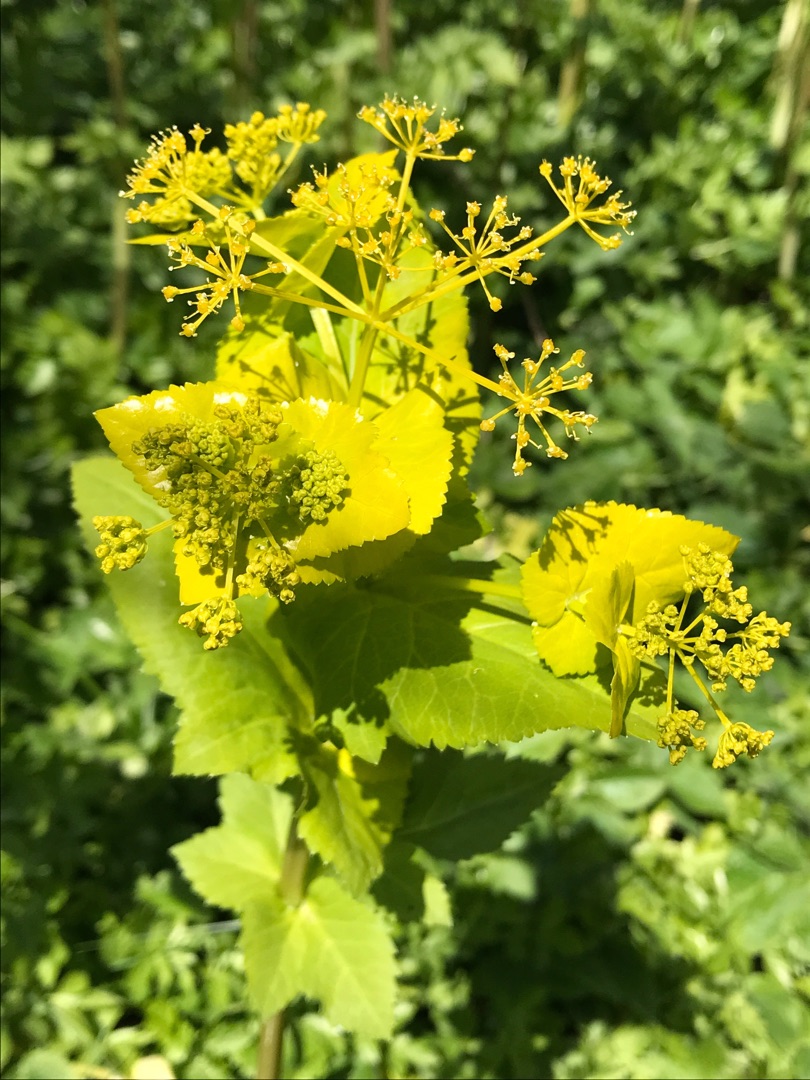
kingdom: Plantae
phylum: Tracheophyta
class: Magnoliopsida
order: Apiales
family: Apiaceae
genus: Smyrnium
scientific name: Smyrnium perfoliatum
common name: Lundgylden
